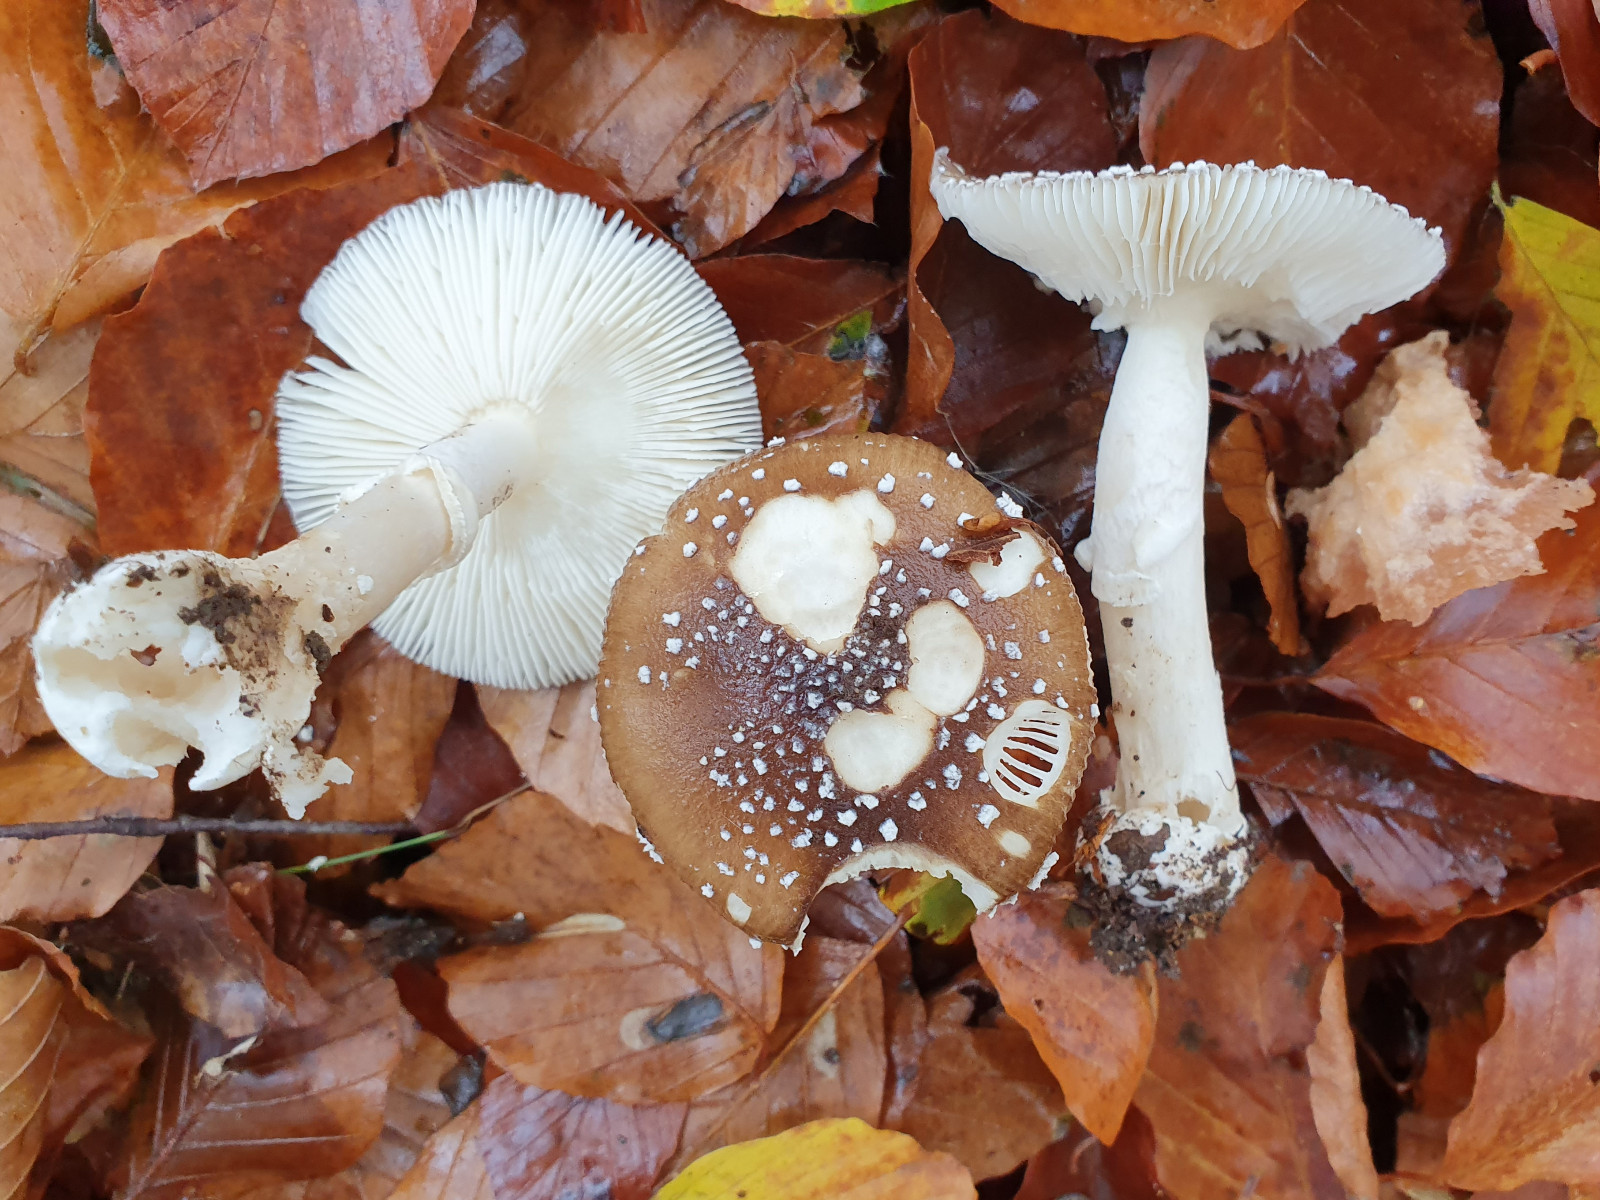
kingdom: Fungi
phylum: Basidiomycota
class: Agaricomycetes
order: Agaricales
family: Amanitaceae
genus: Amanita
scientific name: Amanita pantherina
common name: panter-fluesvamp
